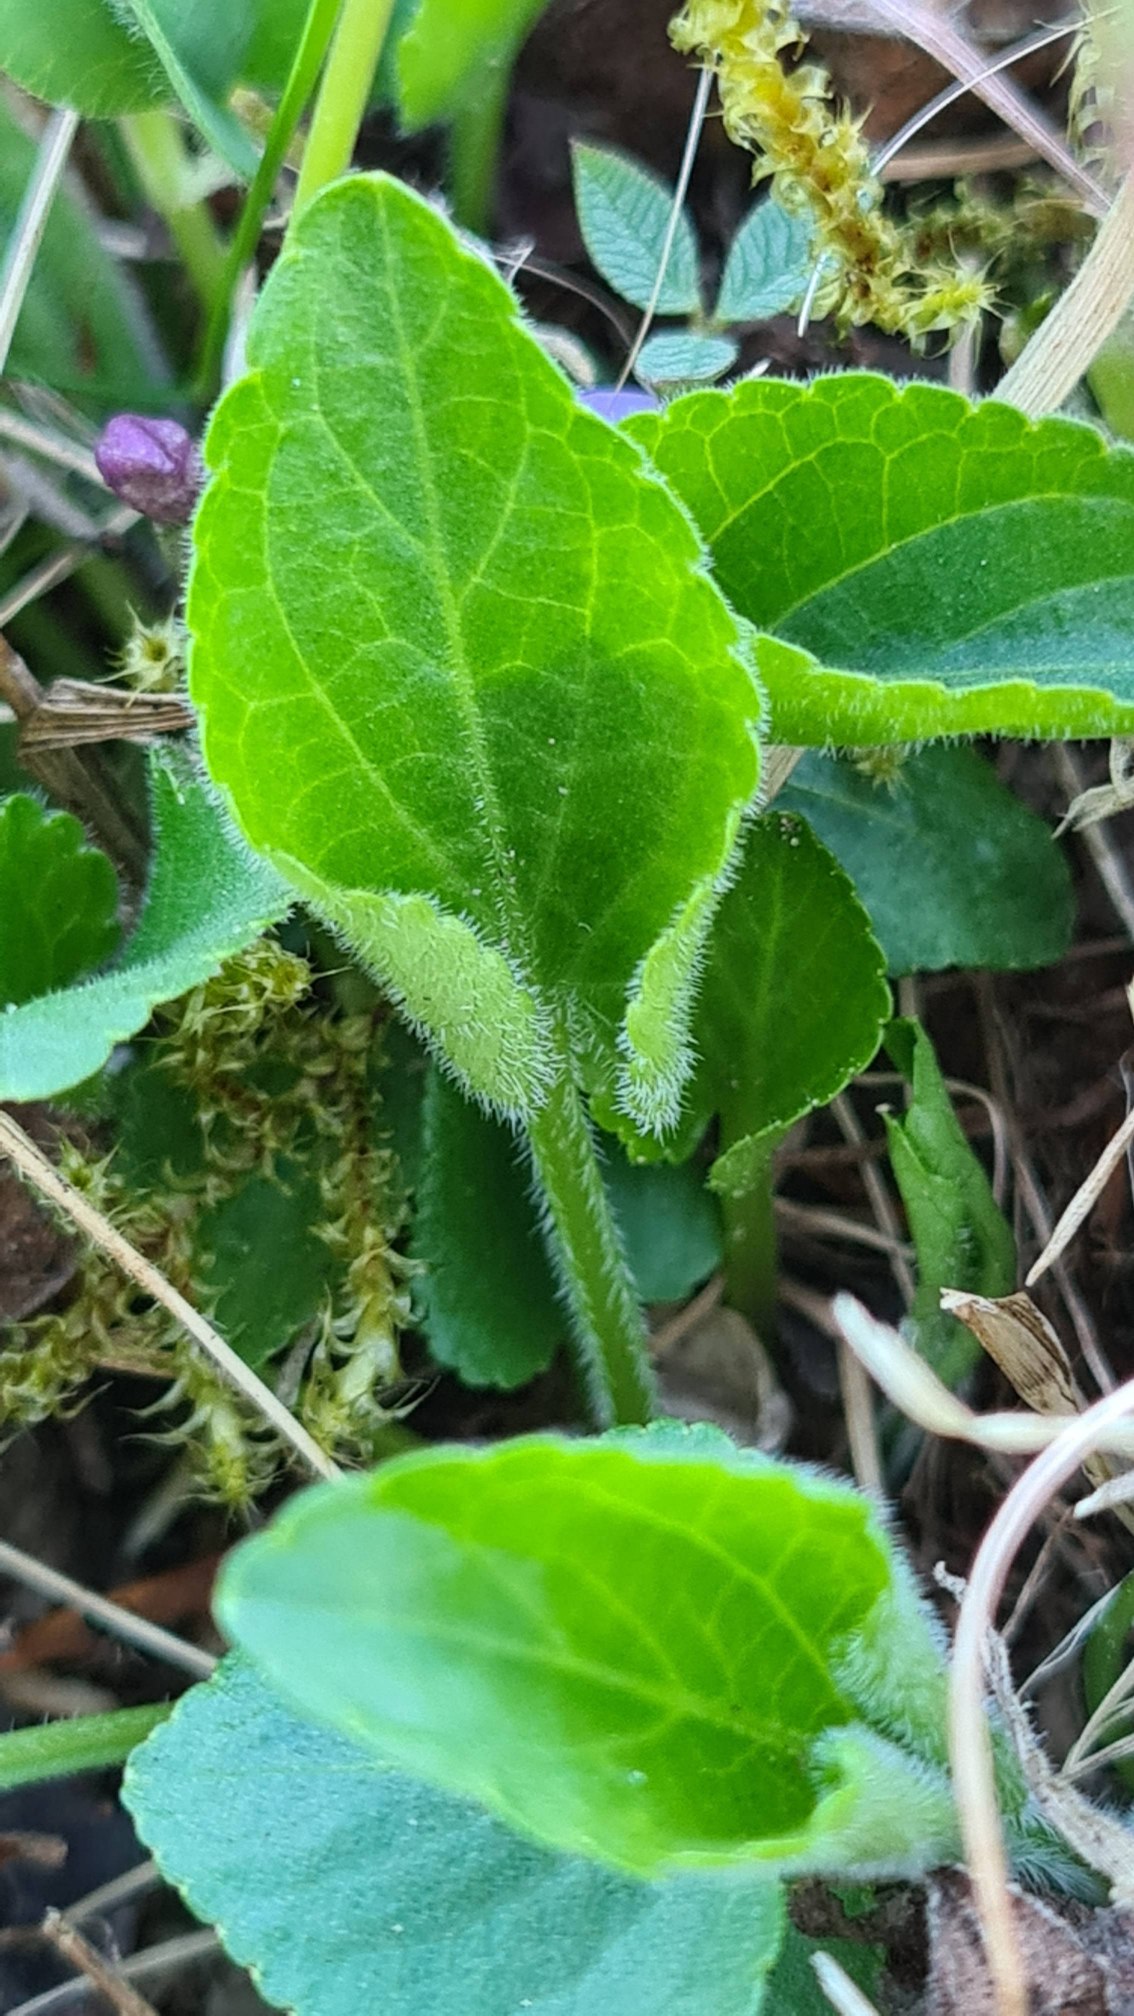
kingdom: Plantae
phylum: Tracheophyta
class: Magnoliopsida
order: Malpighiales
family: Violaceae
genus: Viola
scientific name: Viola hirta
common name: Håret viol
